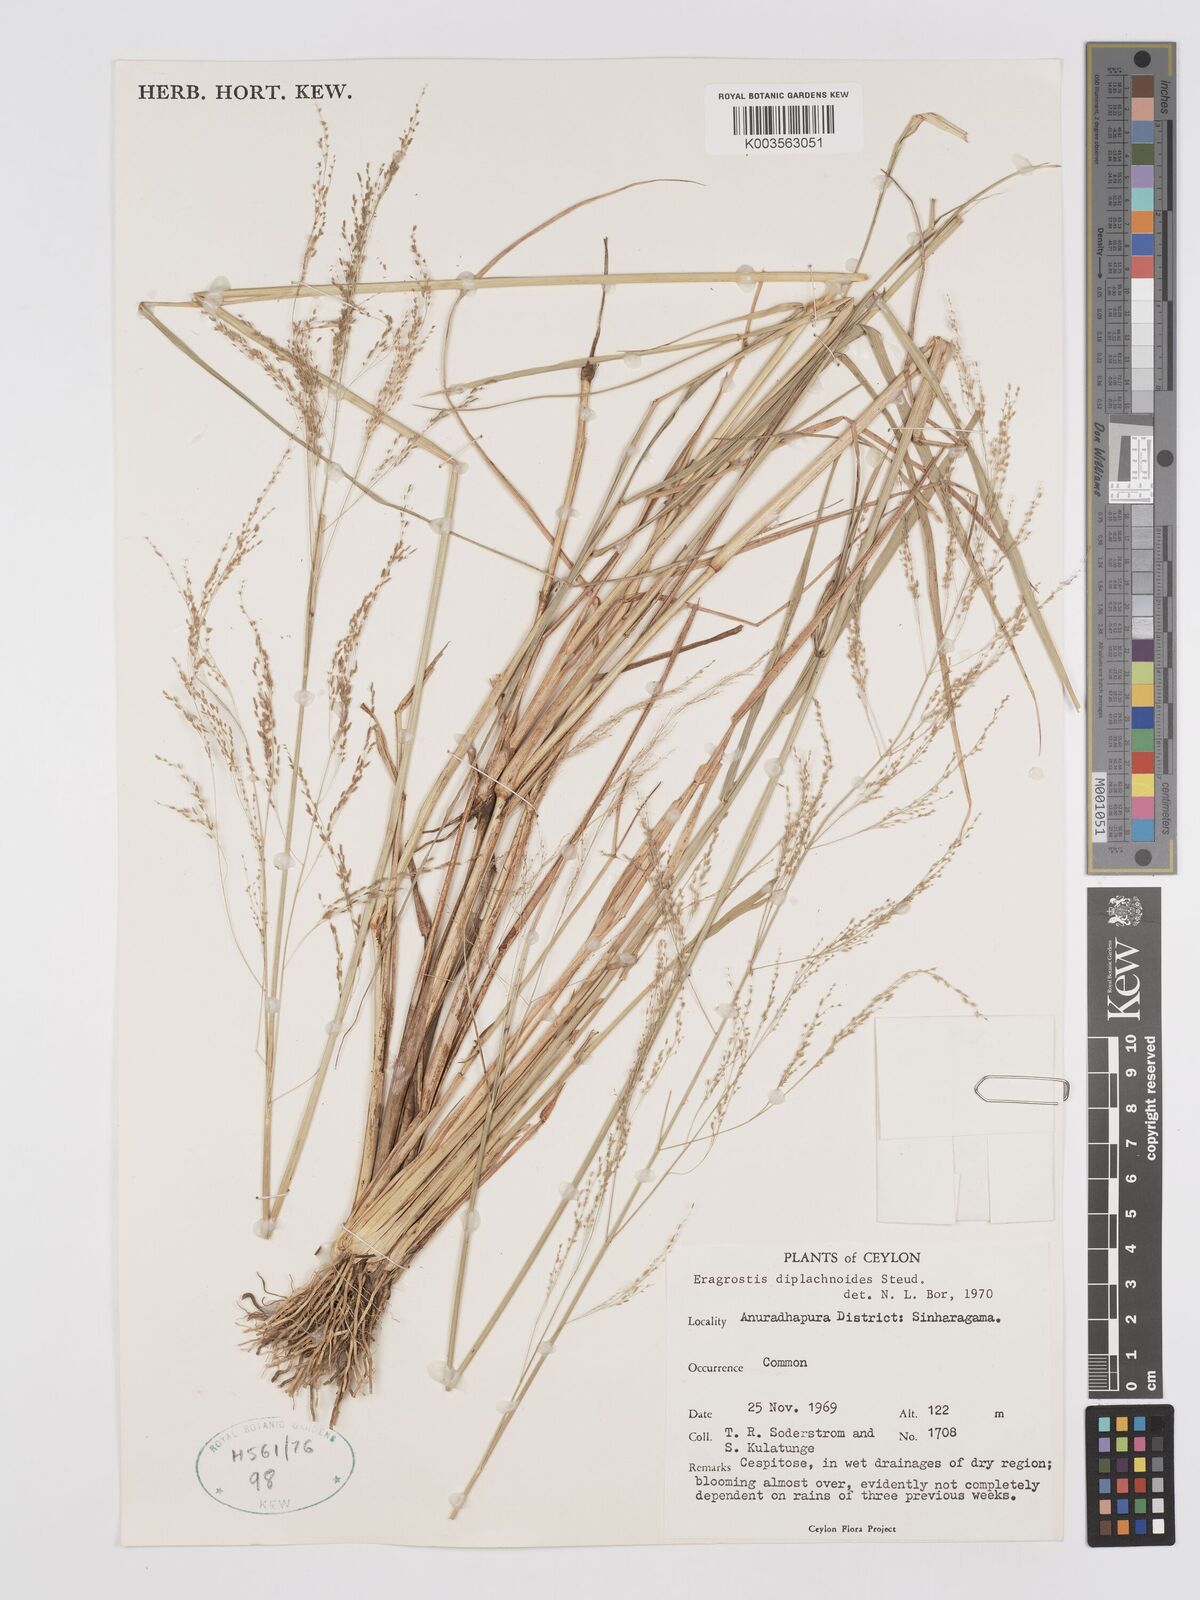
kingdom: Plantae
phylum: Tracheophyta
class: Liliopsida
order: Poales
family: Poaceae
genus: Eragrostis
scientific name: Eragrostis japonica
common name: Pond lovegrass
